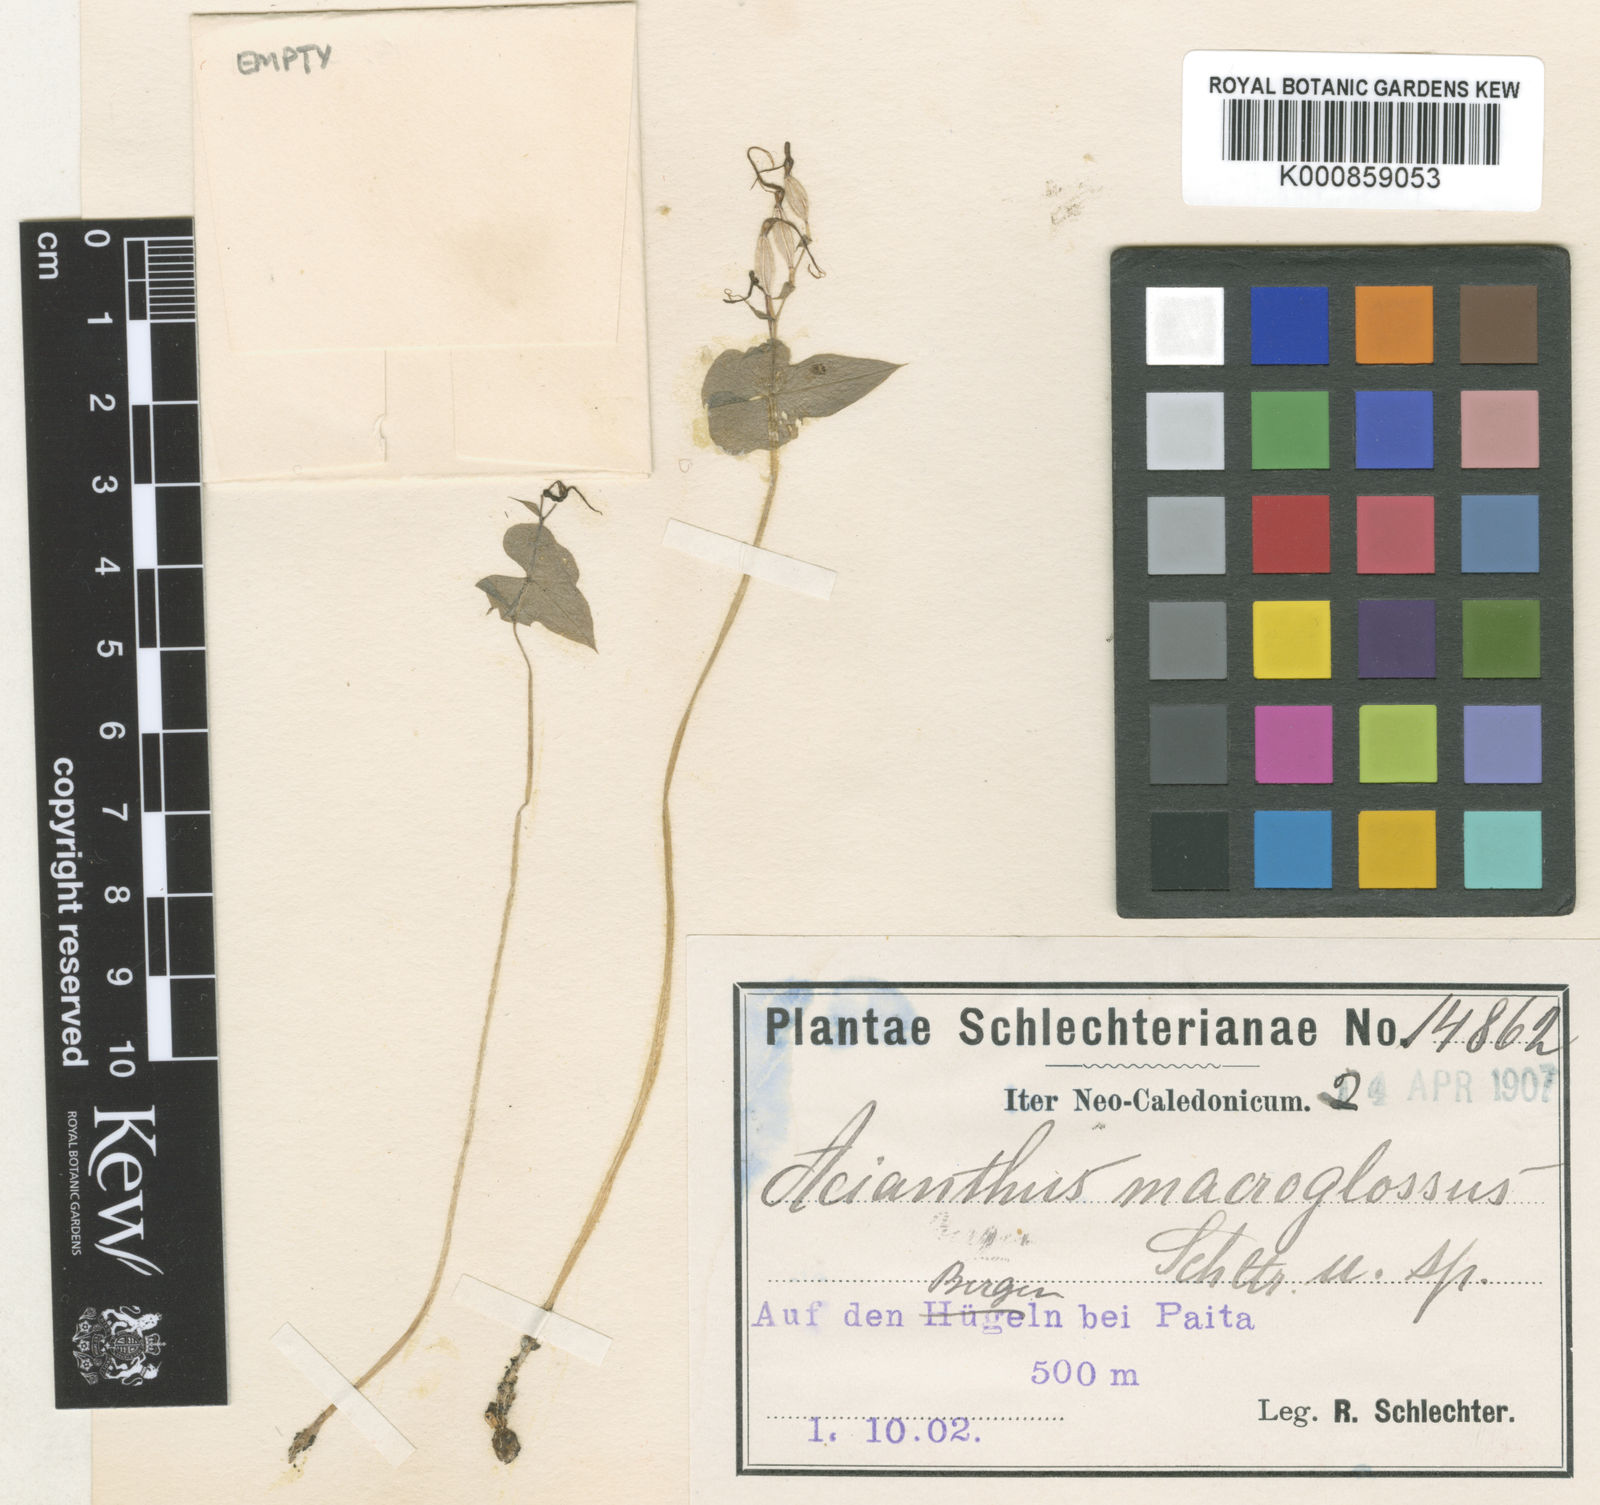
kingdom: Plantae
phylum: Tracheophyta
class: Liliopsida
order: Asparagales
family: Orchidaceae
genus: Stigmatodactylus
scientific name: Stigmatodactylus macroglossus
